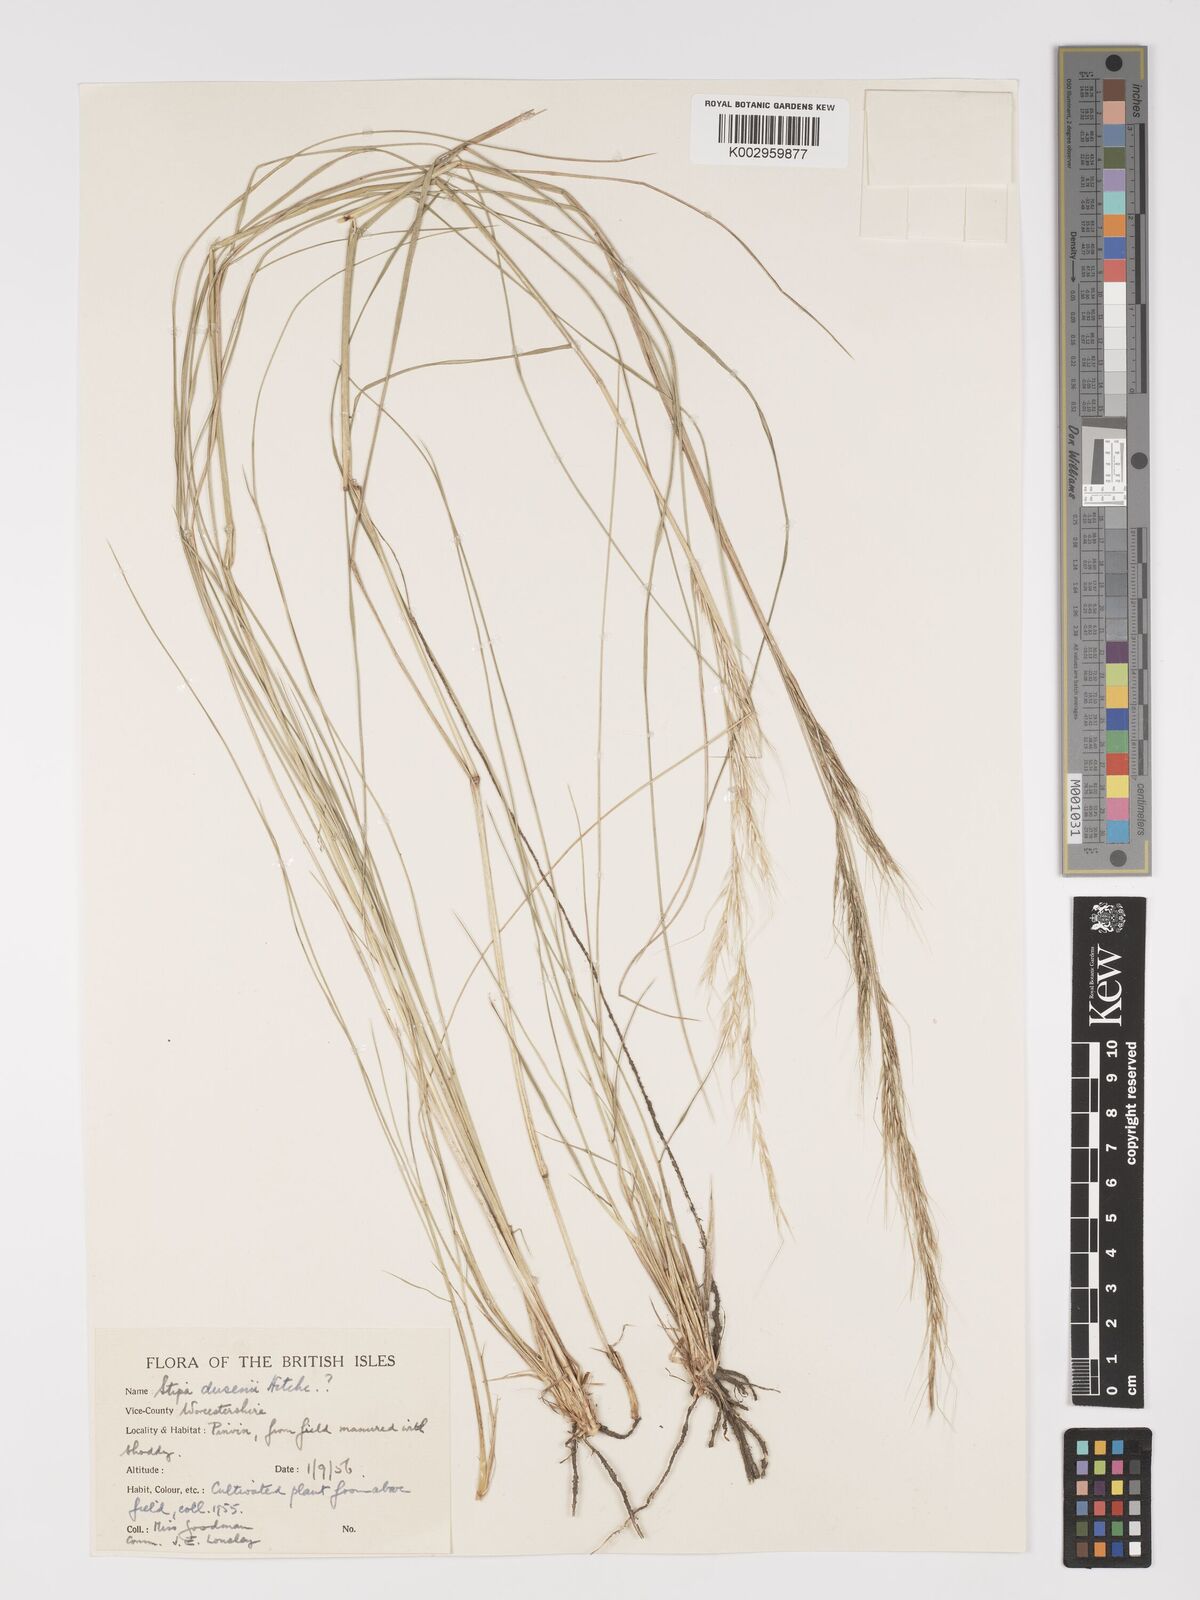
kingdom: Plantae
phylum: Tracheophyta
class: Liliopsida
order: Poales
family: Poaceae
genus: Amelichloa
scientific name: Amelichloa ambigua
